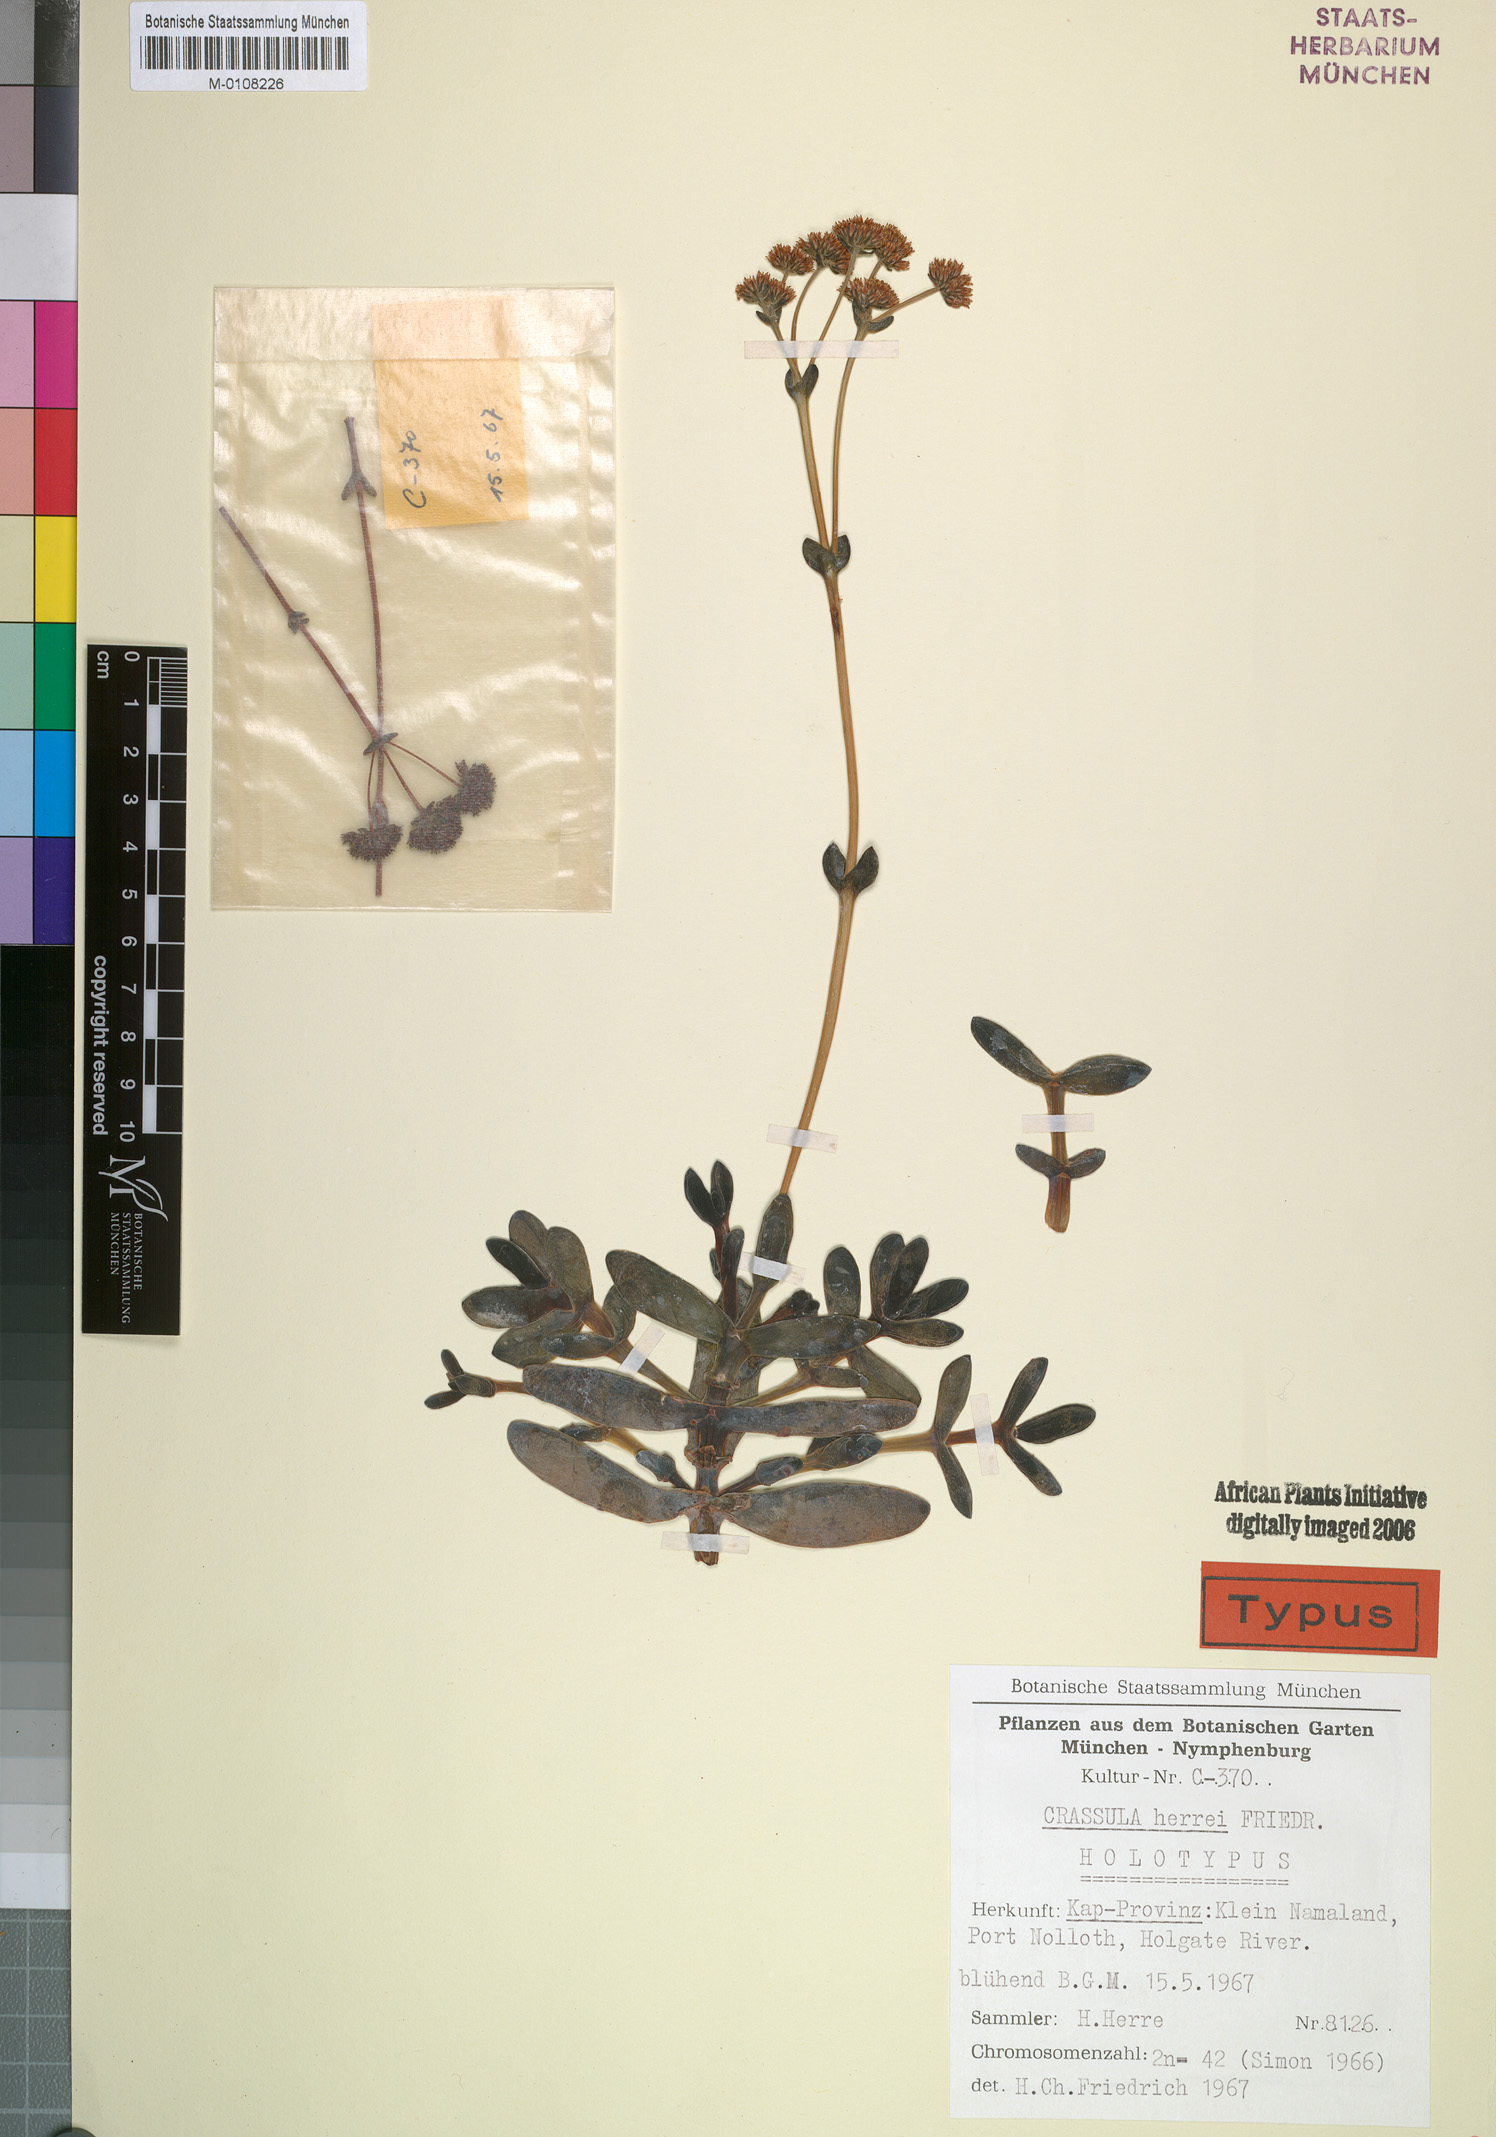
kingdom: Plantae
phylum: Tracheophyta
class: Magnoliopsida
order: Saxifragales
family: Crassulaceae
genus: Crassula
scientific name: Crassula nudicaulis
